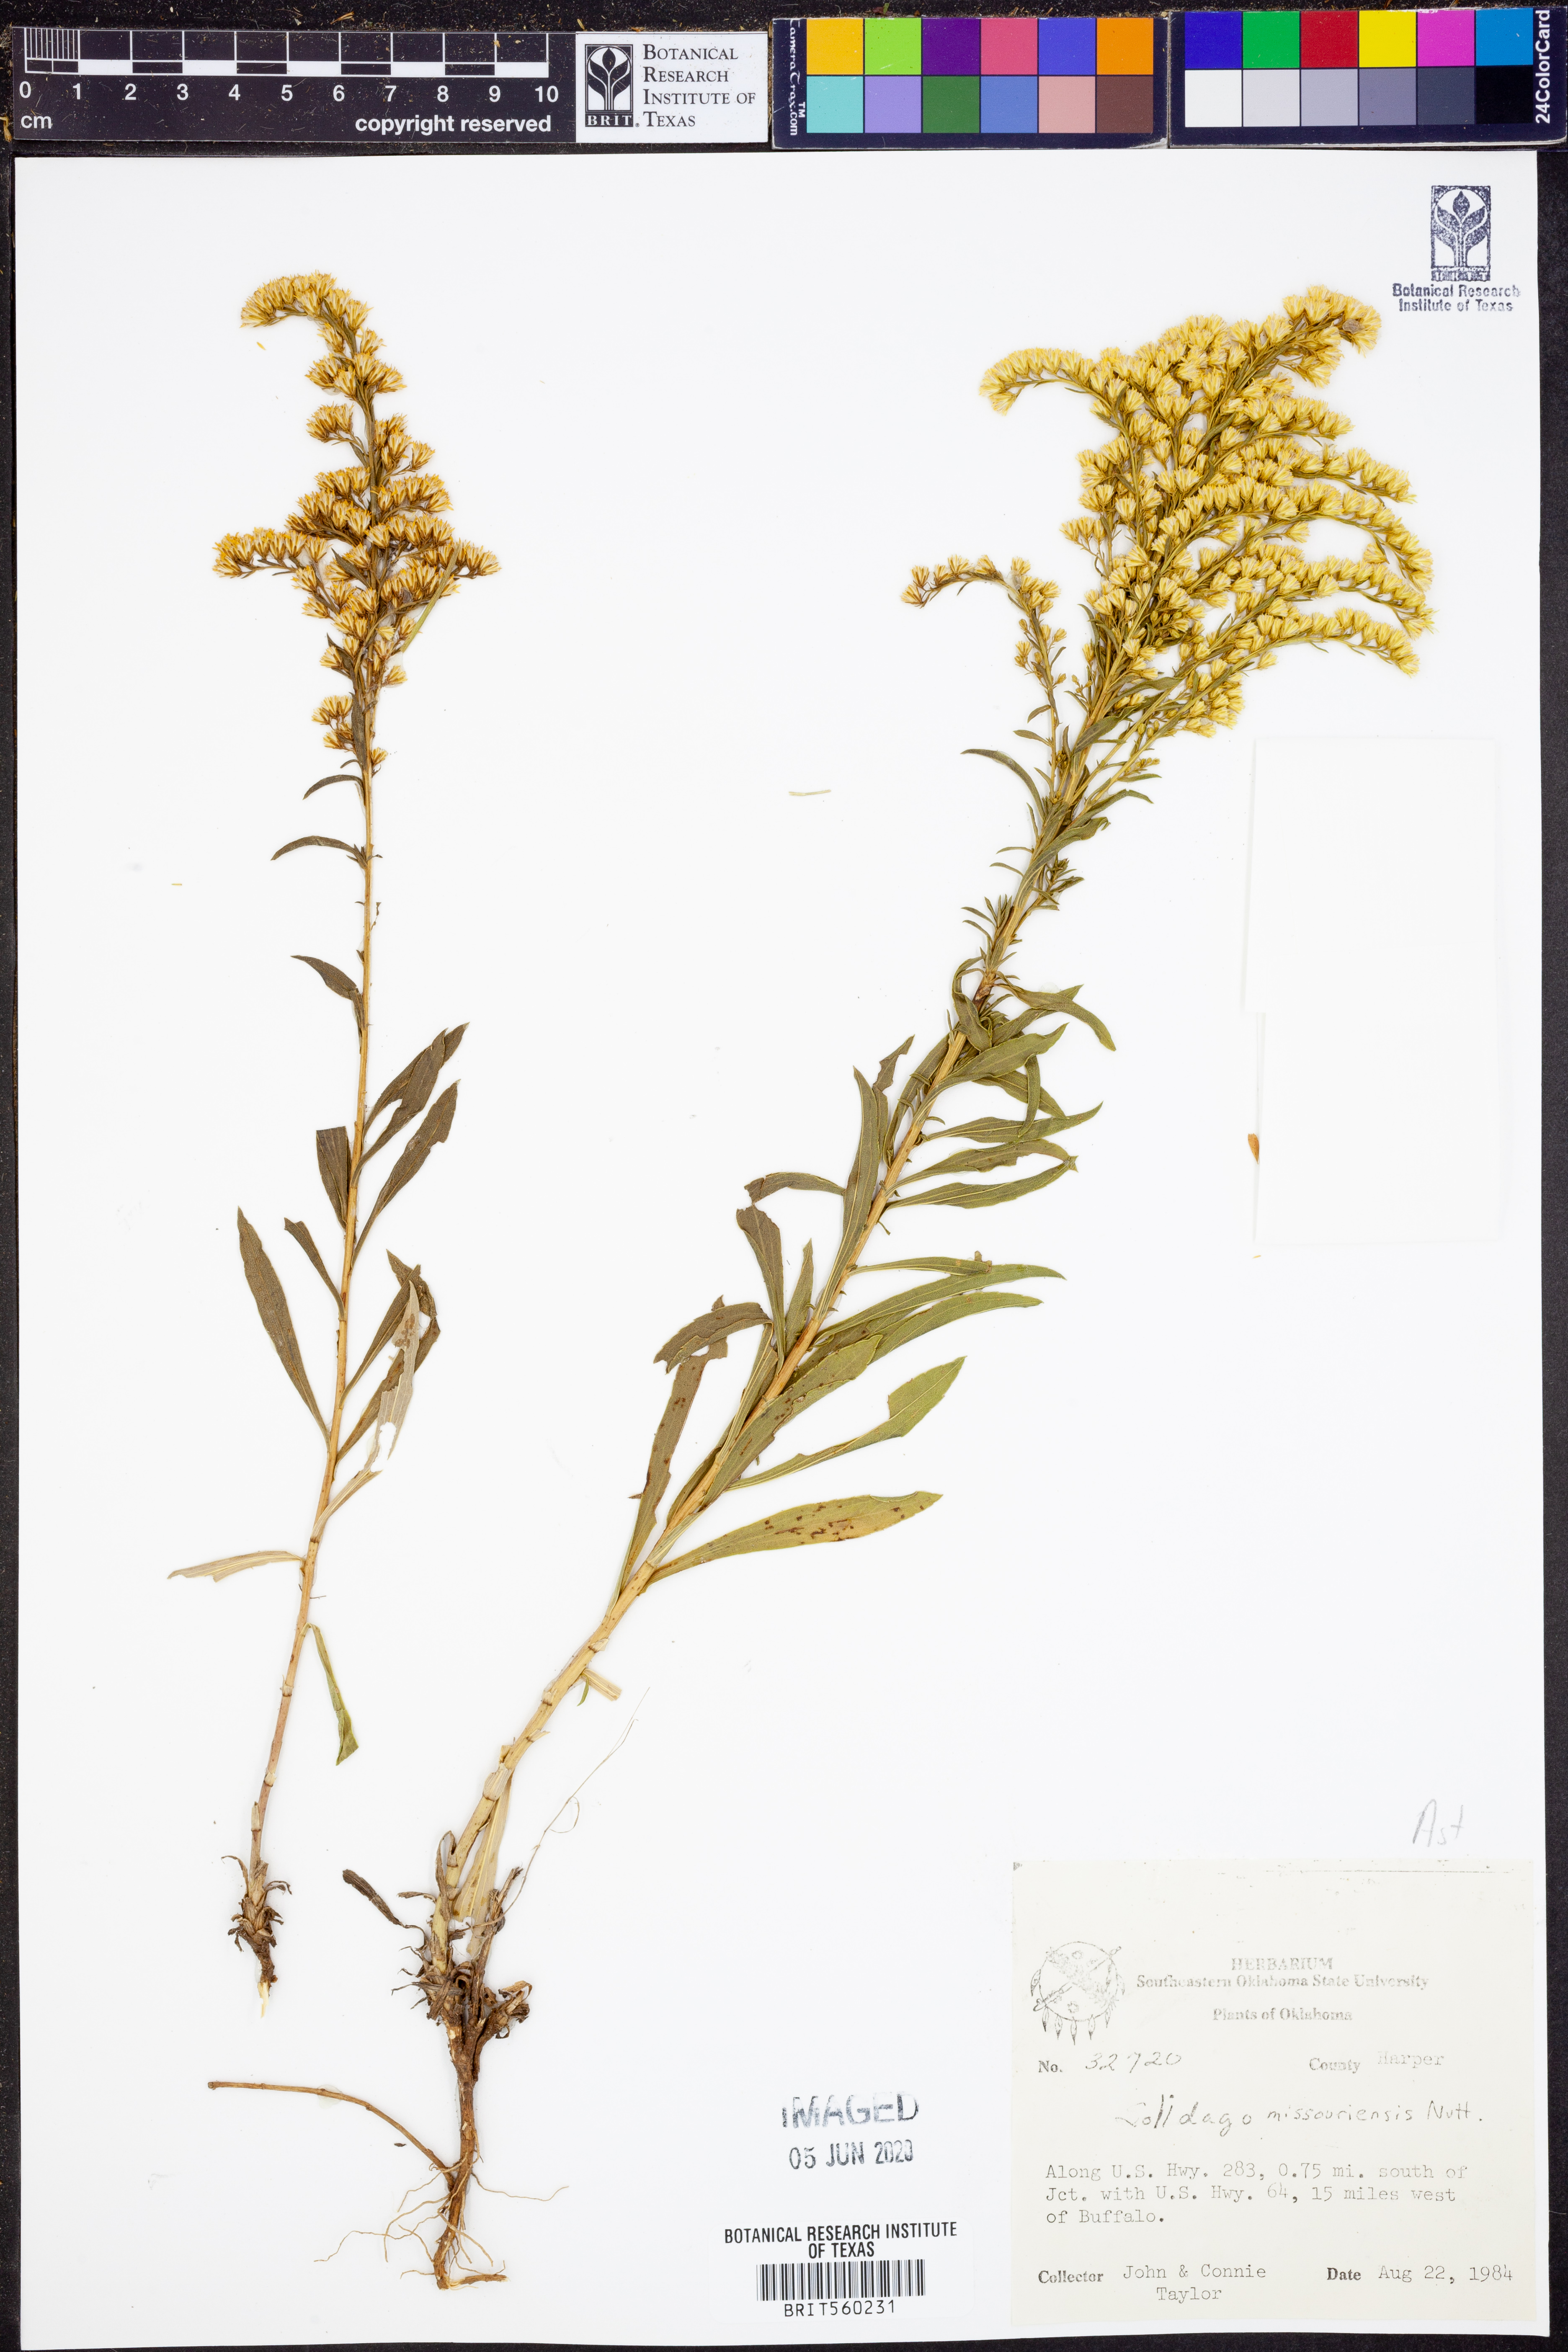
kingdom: Plantae
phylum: Tracheophyta
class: Magnoliopsida
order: Asterales
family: Asteraceae
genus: Solidago
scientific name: Solidago missouriensis
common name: Prairie goldenrod
